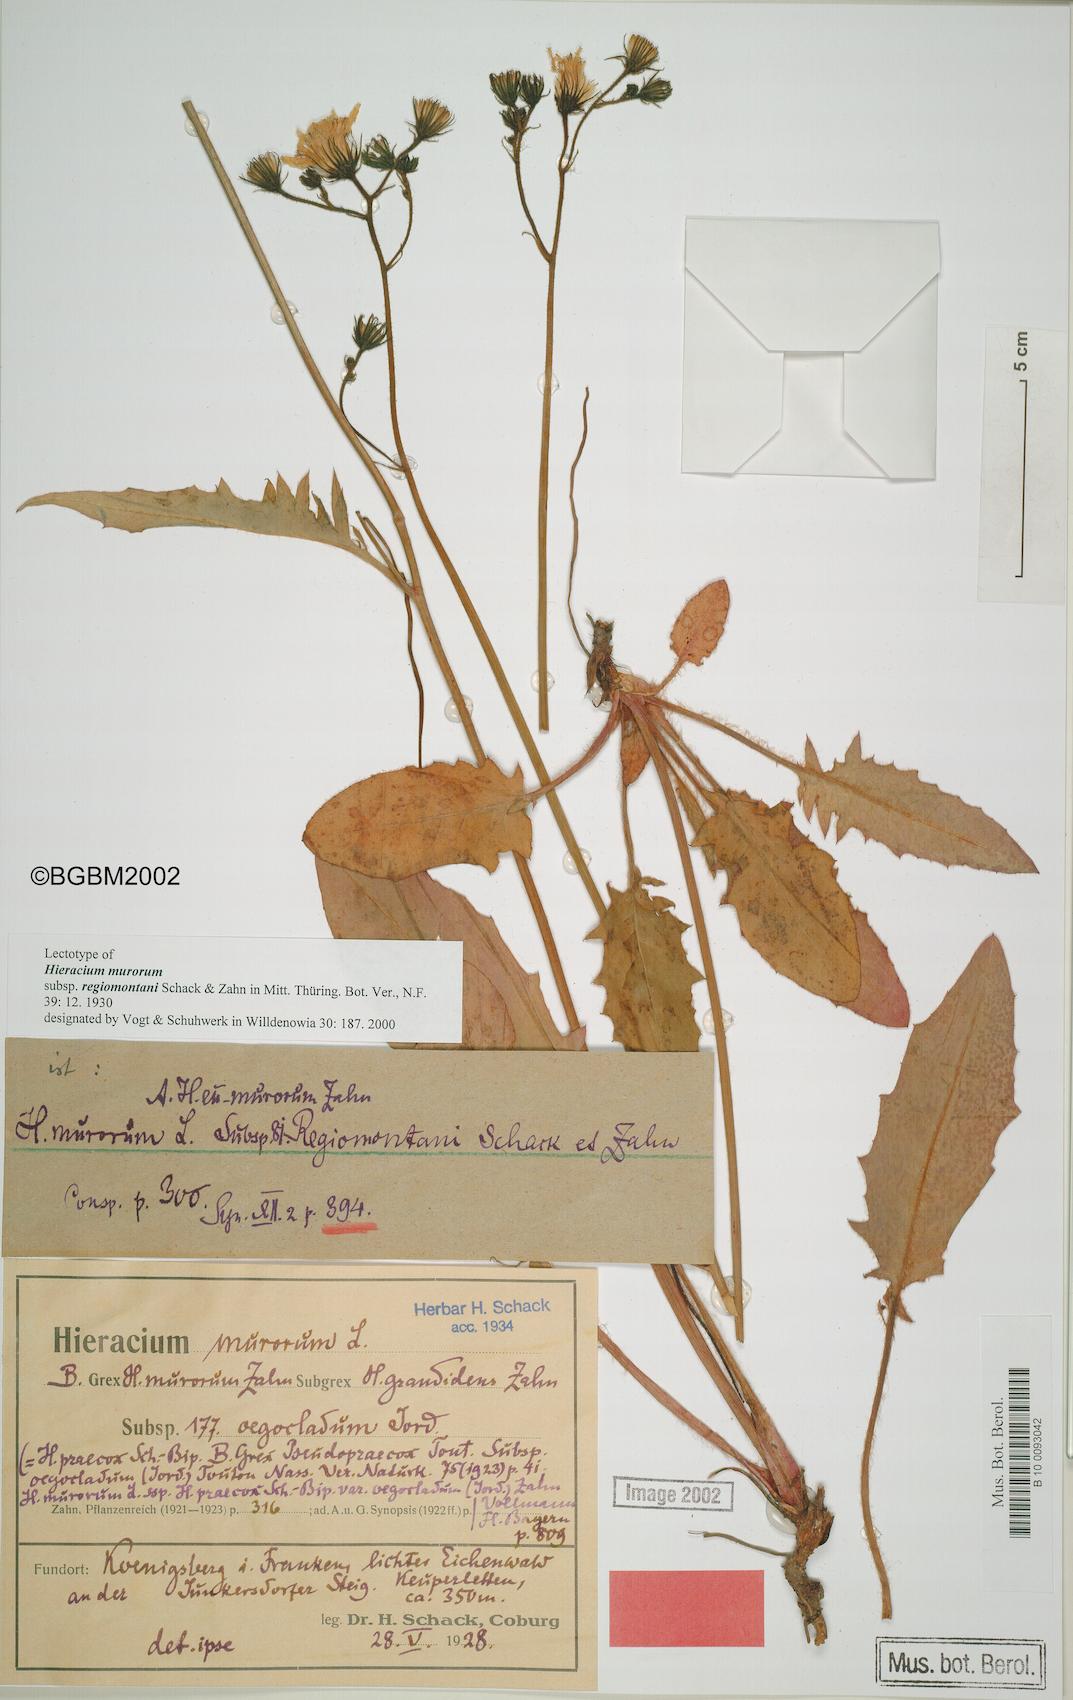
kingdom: Plantae
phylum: Tracheophyta
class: Magnoliopsida
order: Asterales
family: Asteraceae
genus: Hieracium
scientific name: Hieracium murorum
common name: Wall hawkweed
